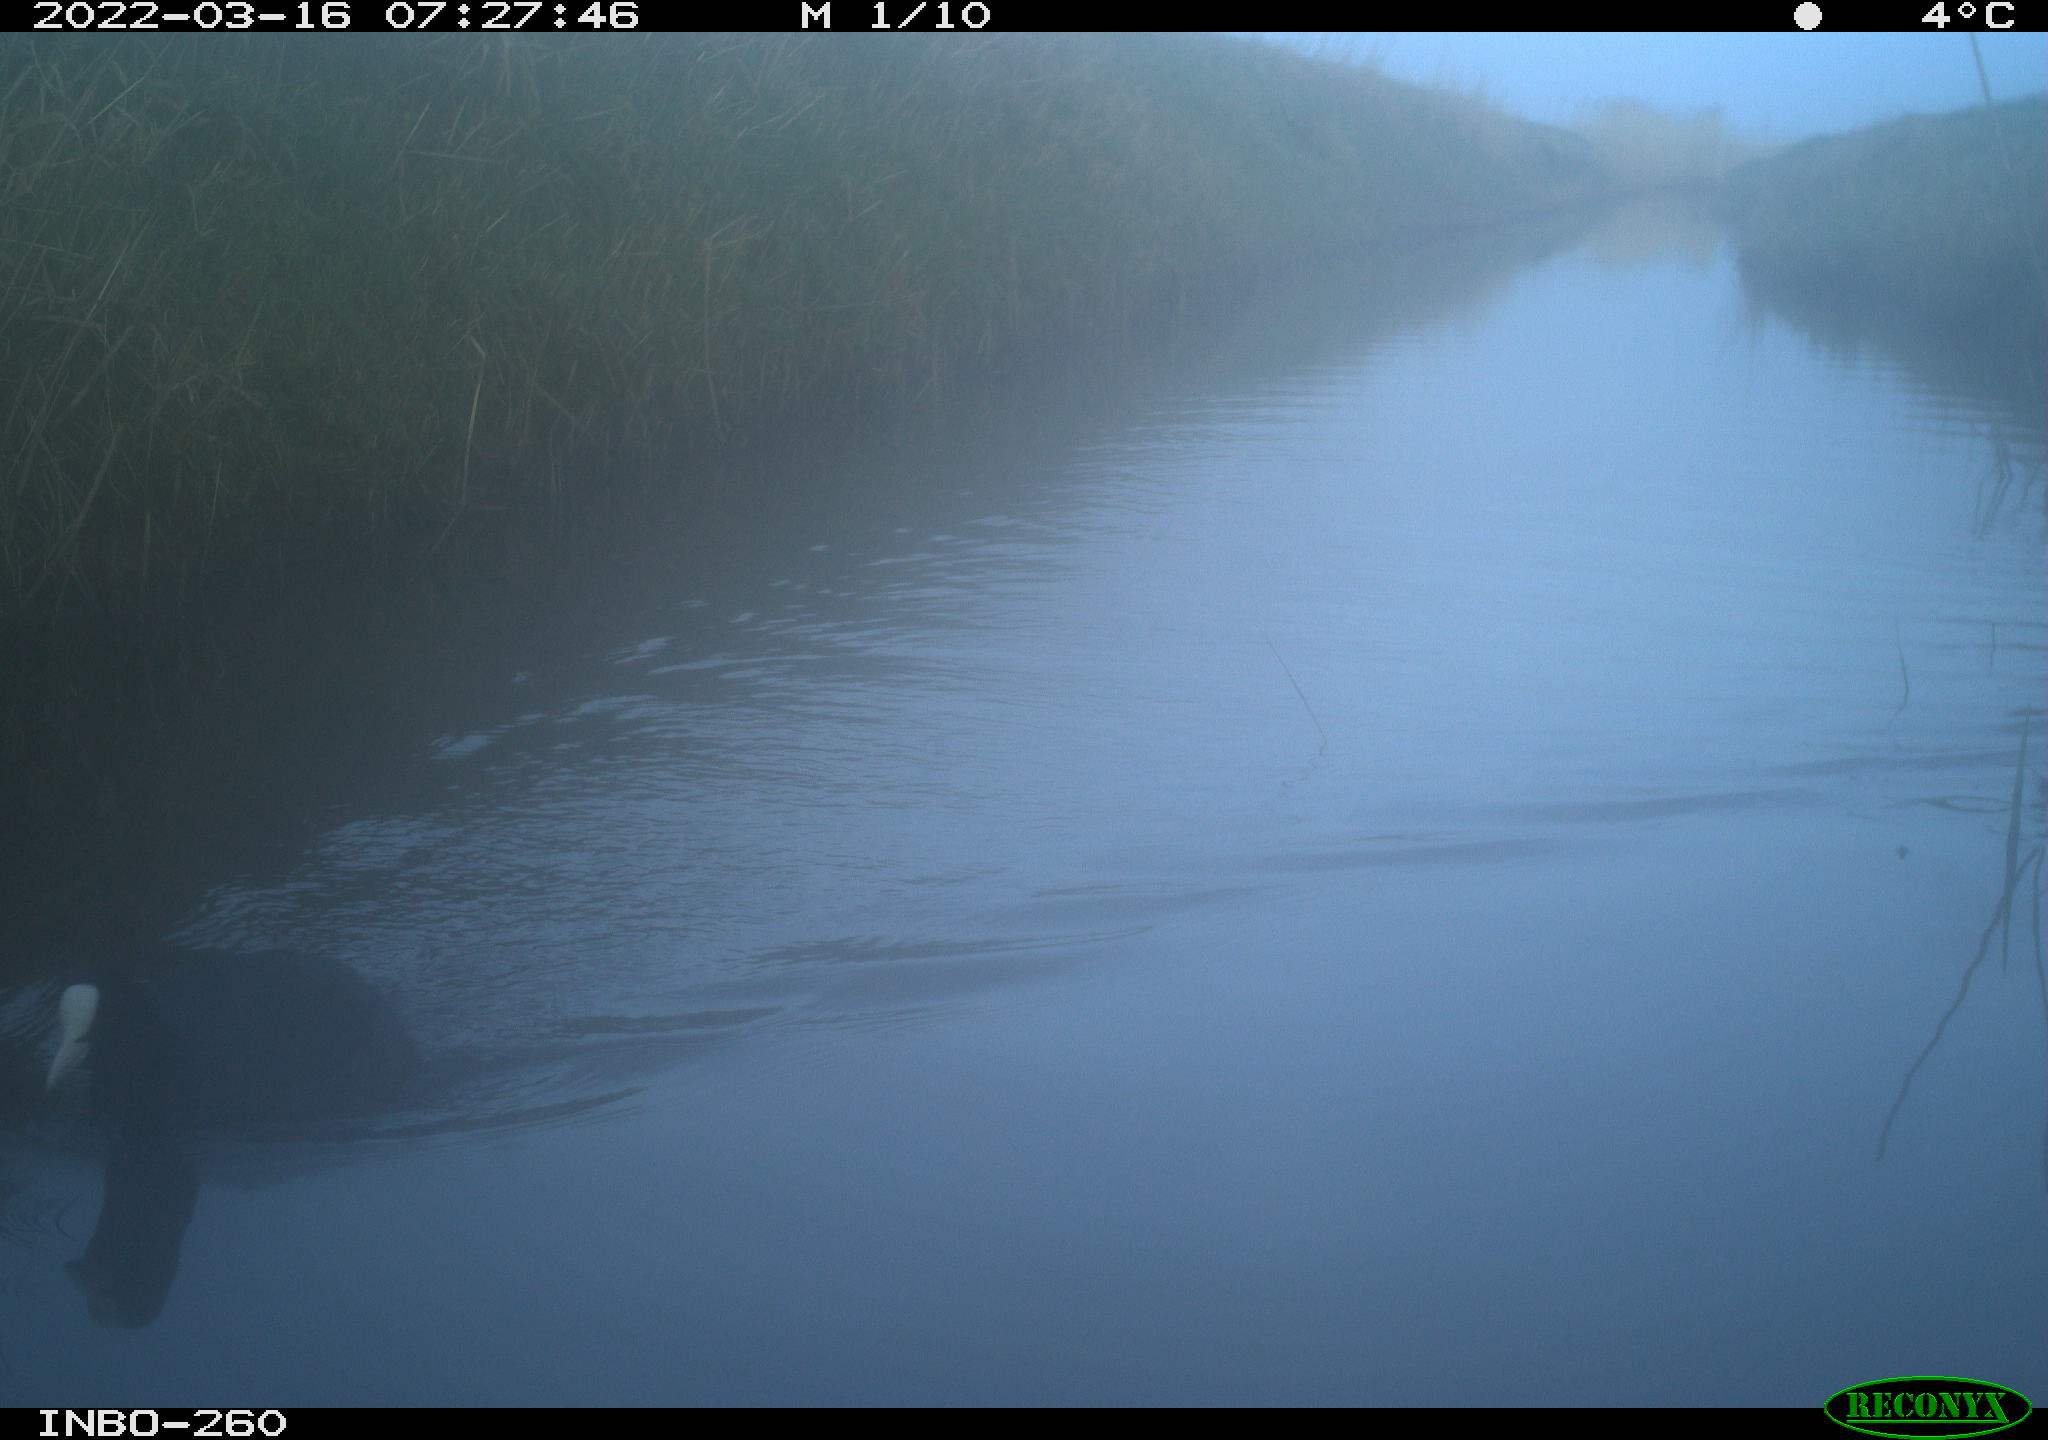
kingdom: Animalia
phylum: Chordata
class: Aves
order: Gruiformes
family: Rallidae
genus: Fulica
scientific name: Fulica atra
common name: Eurasian coot
